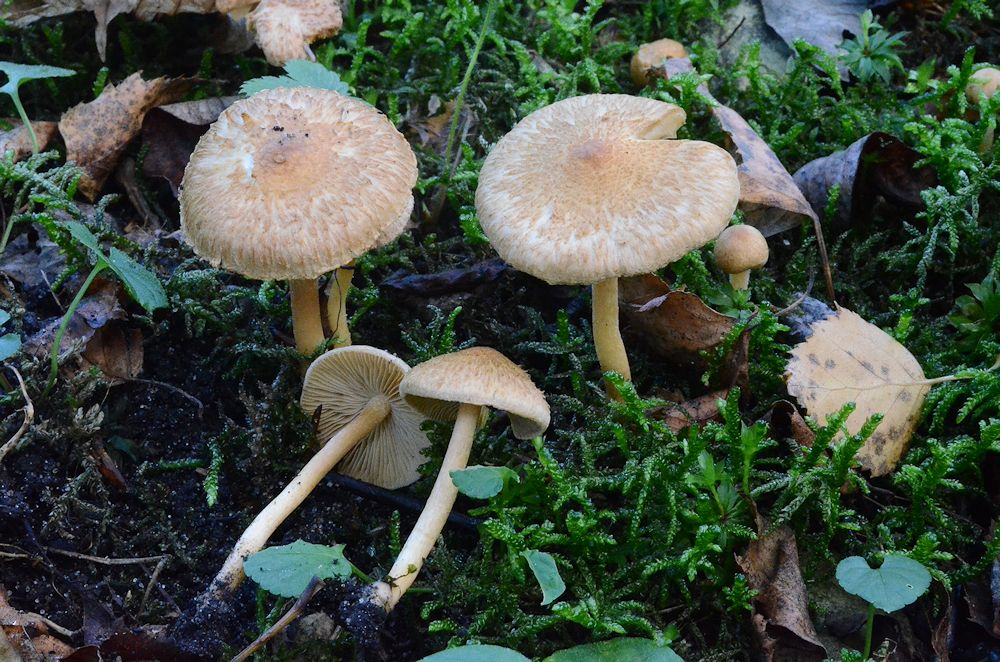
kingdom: Fungi
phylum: Basidiomycota
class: Agaricomycetes
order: Agaricales
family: Inocybaceae
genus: Inocybe
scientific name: Inocybe
